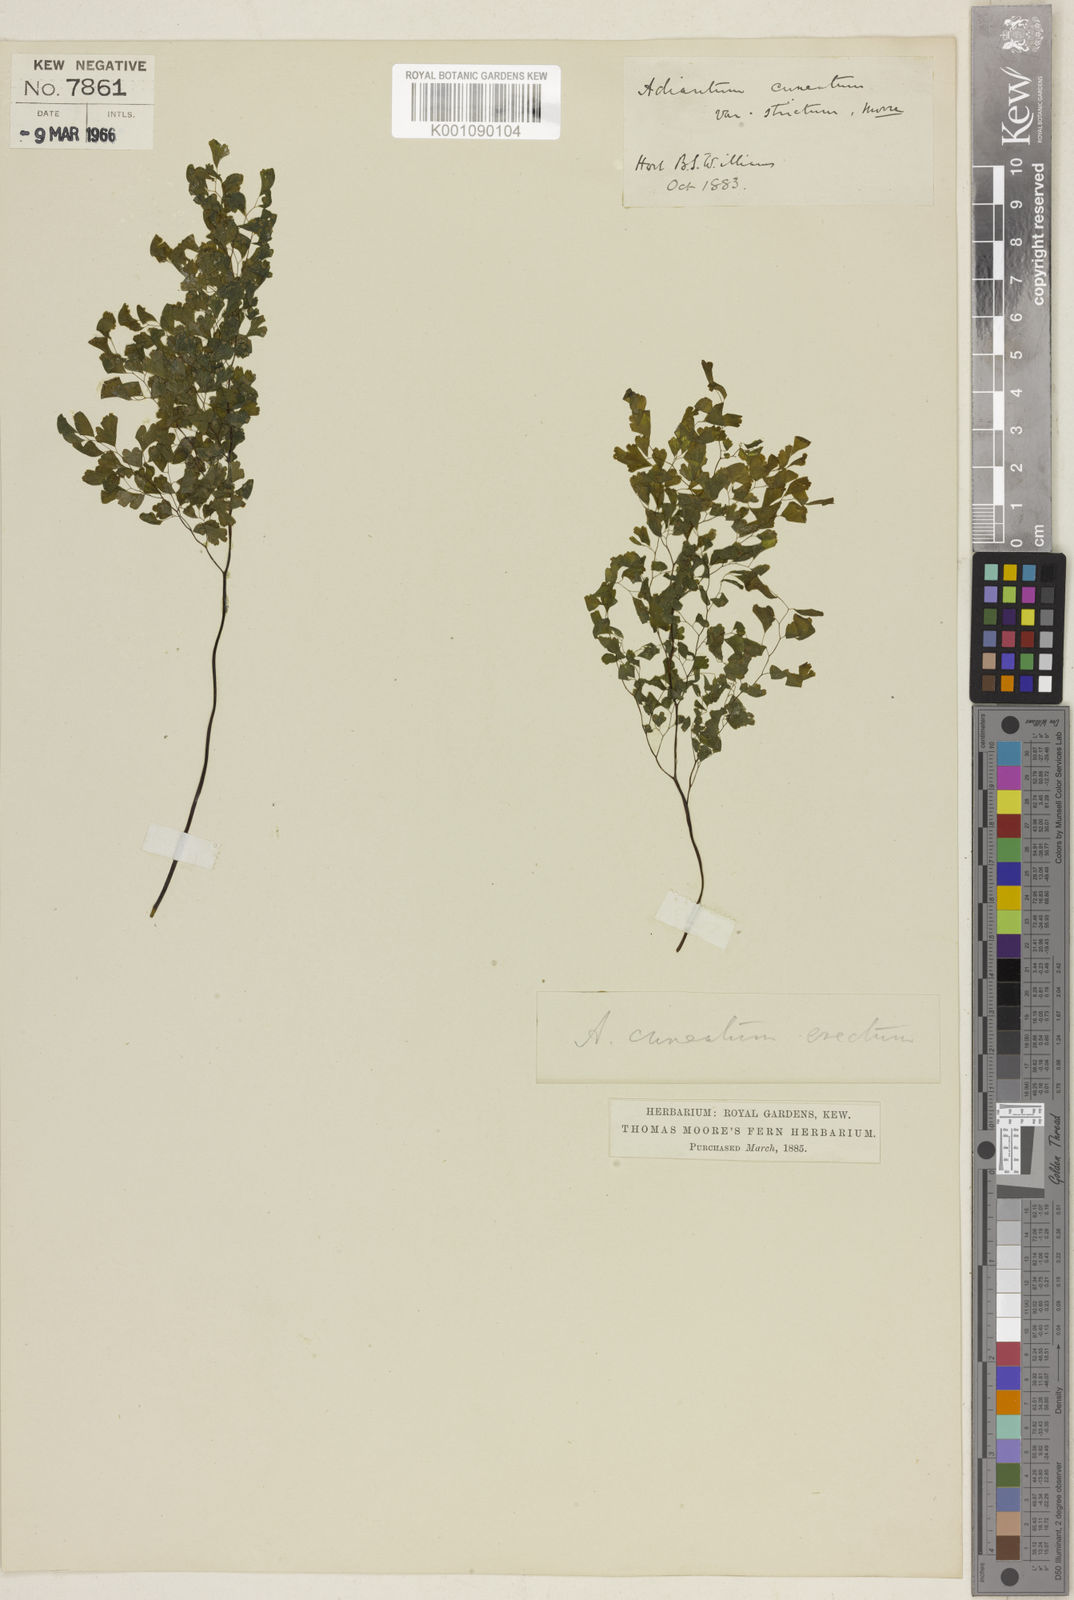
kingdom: Plantae
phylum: Tracheophyta
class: Polypodiopsida
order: Polypodiales
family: Pteridaceae
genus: Adiantum
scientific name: Adiantum raddianum
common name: Delta maidenhair fern
